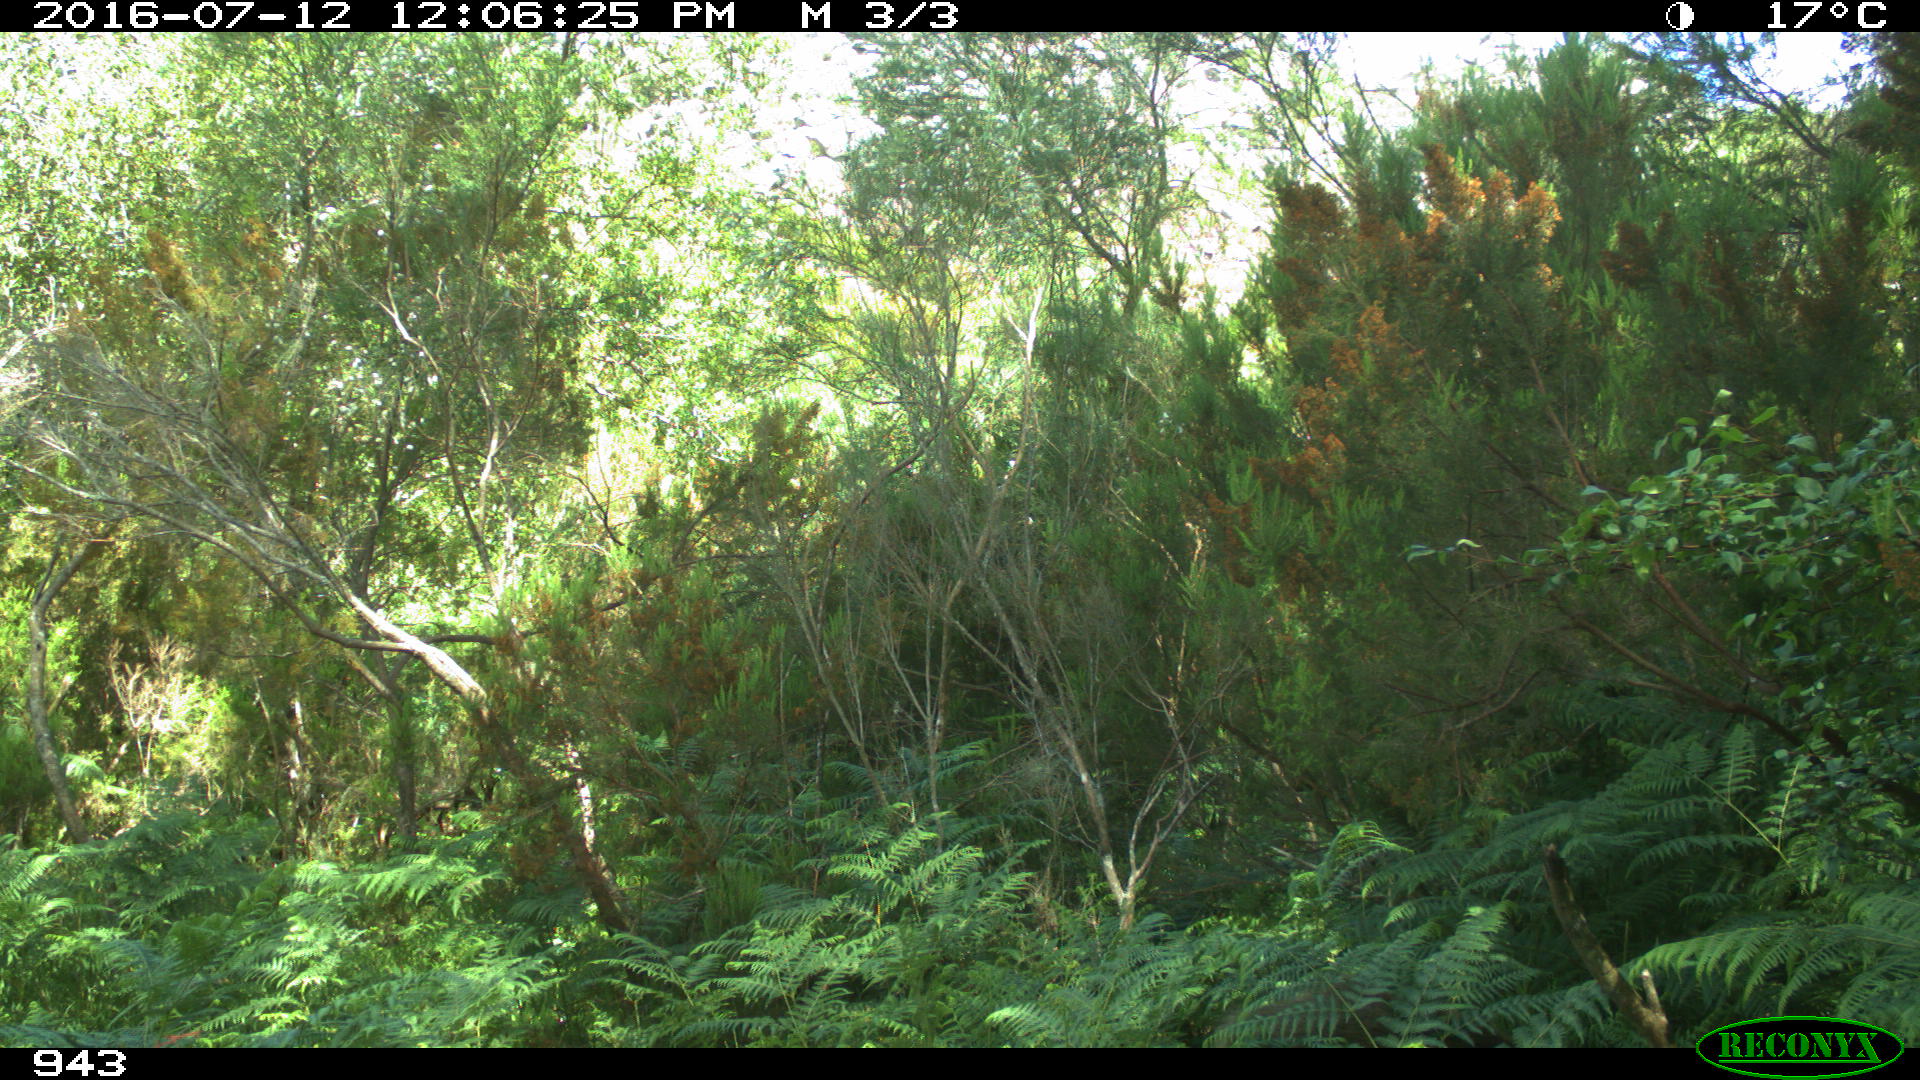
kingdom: Animalia
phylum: Chordata
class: Mammalia
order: Artiodactyla
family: Suidae
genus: Sus
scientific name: Sus scrofa
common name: Wild boar
